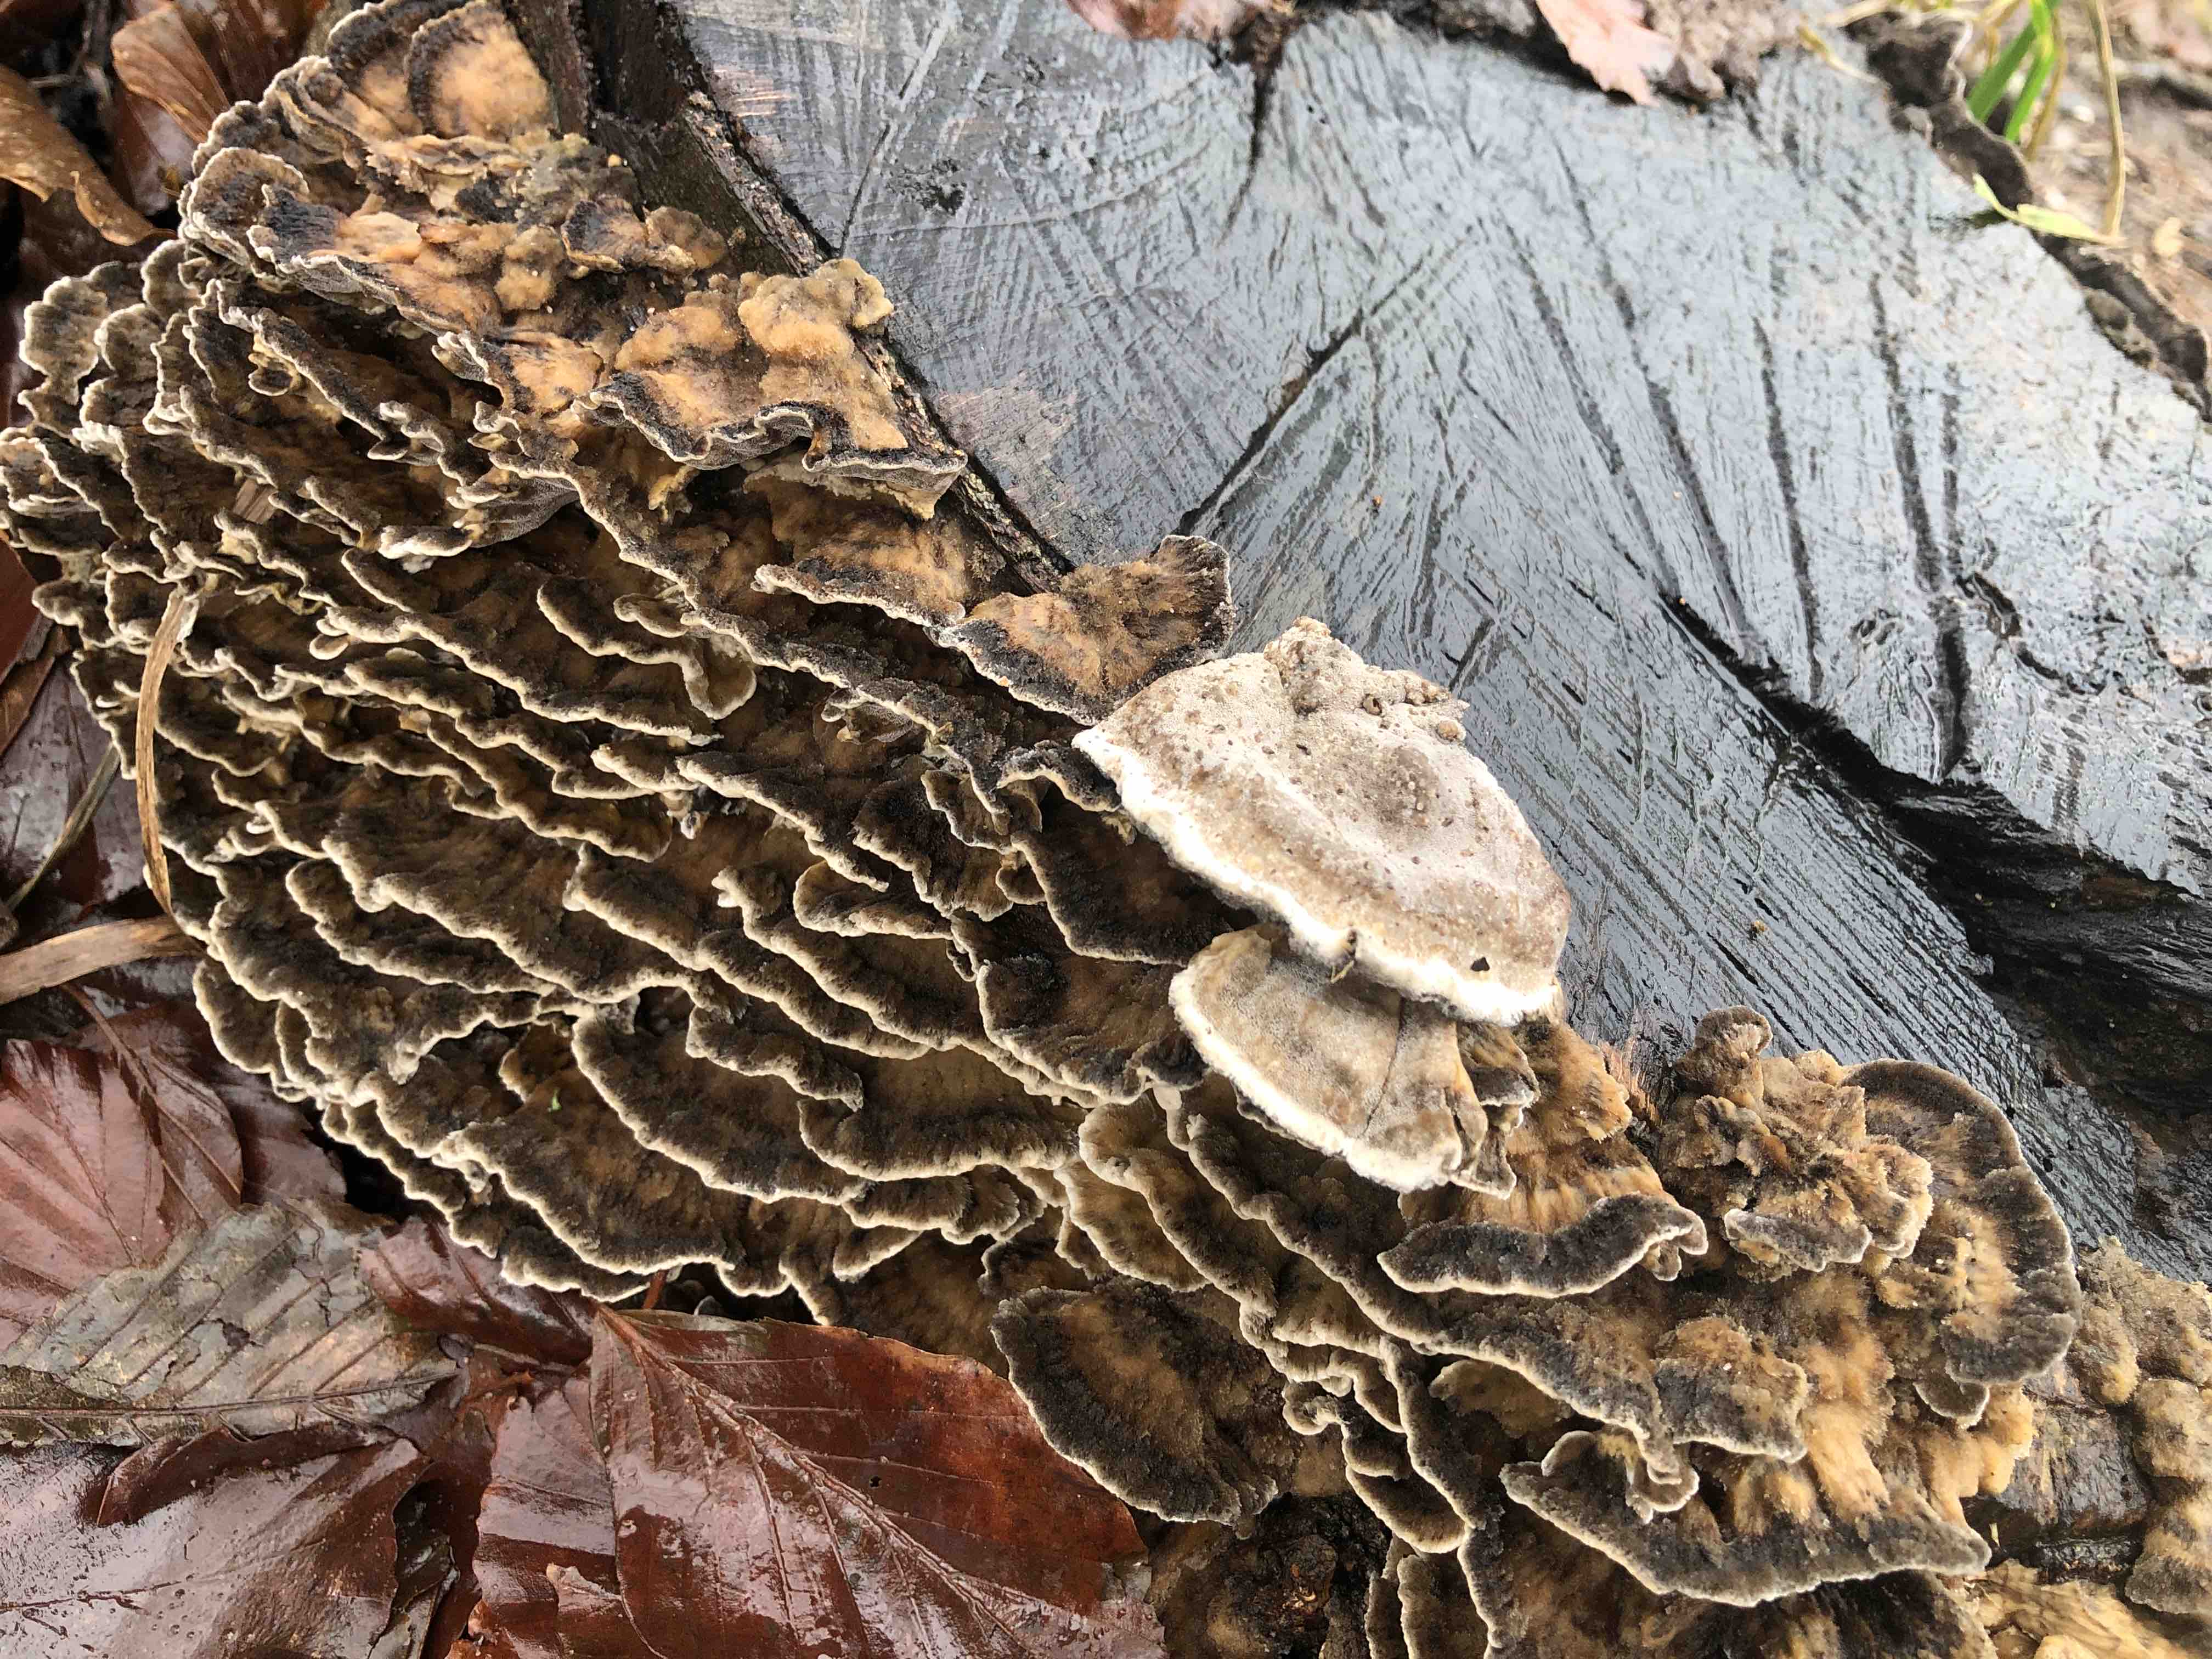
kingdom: Fungi
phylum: Basidiomycota
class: Agaricomycetes
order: Polyporales
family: Phanerochaetaceae
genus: Bjerkandera
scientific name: Bjerkandera adusta
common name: sveden sodporesvamp
